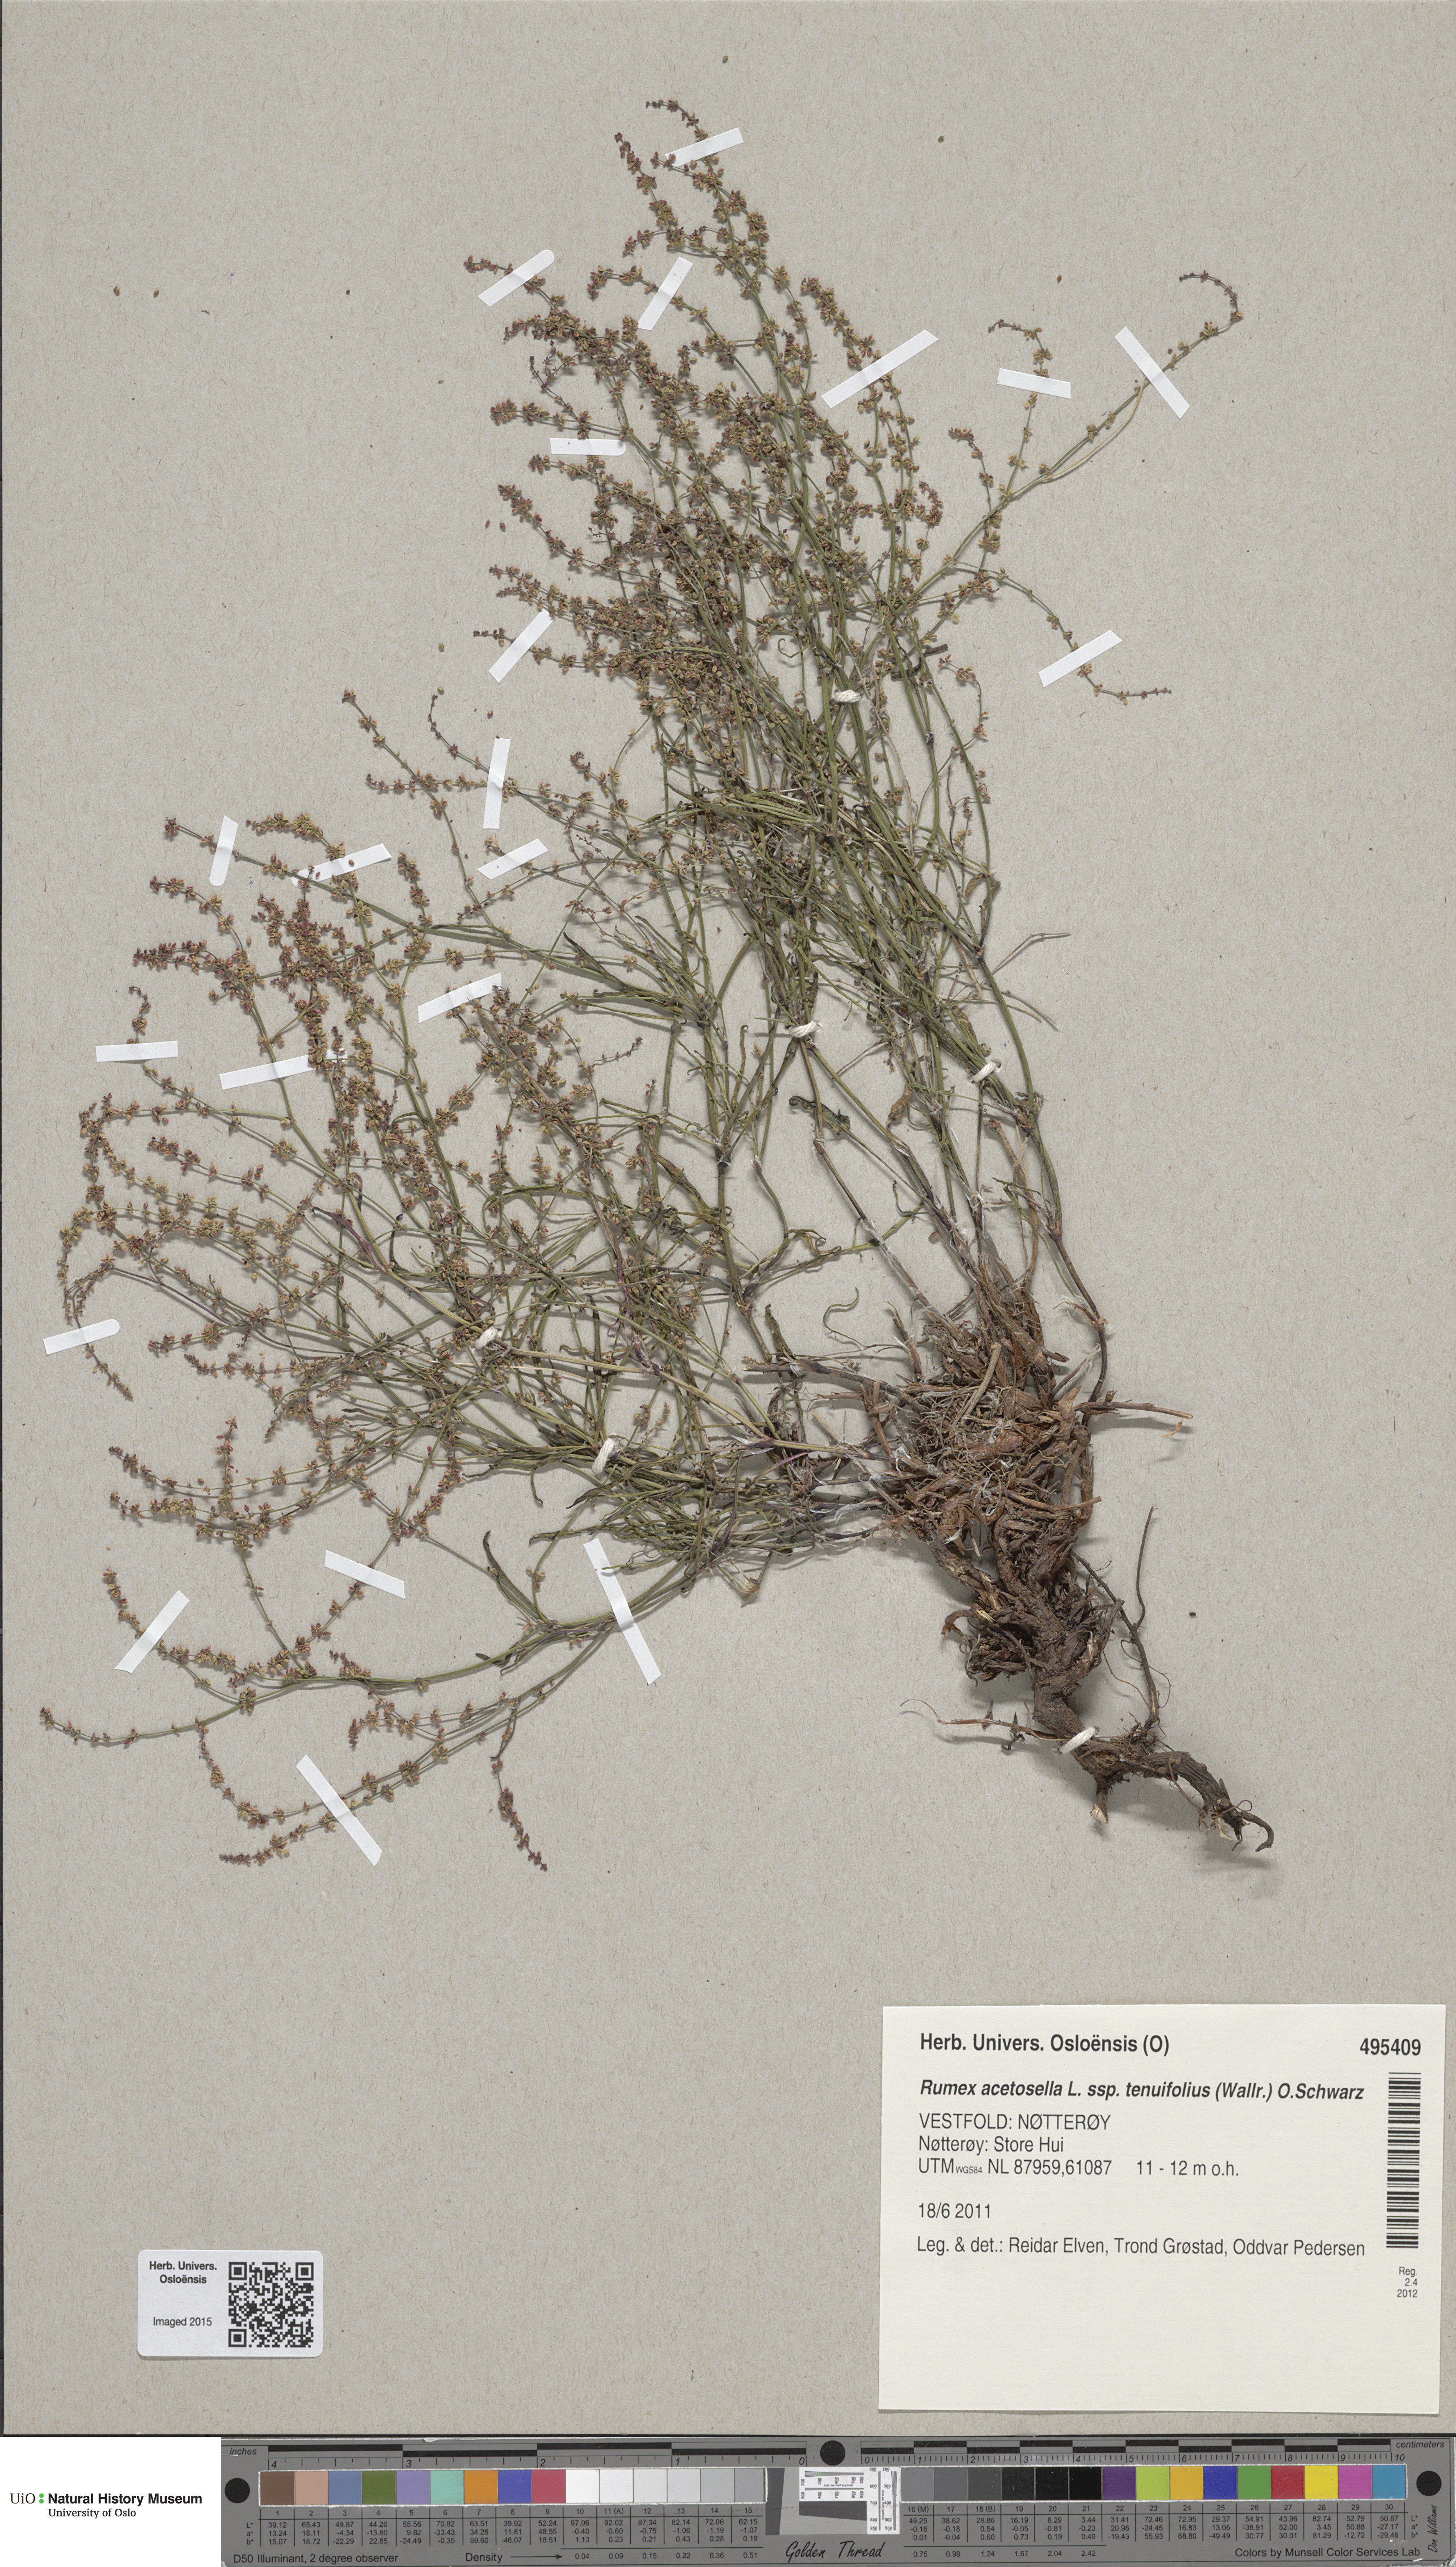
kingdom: Plantae
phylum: Tracheophyta
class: Magnoliopsida
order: Caryophyllales
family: Polygonaceae
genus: Rumex
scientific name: Rumex acetosella
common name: Common sheep sorrel
